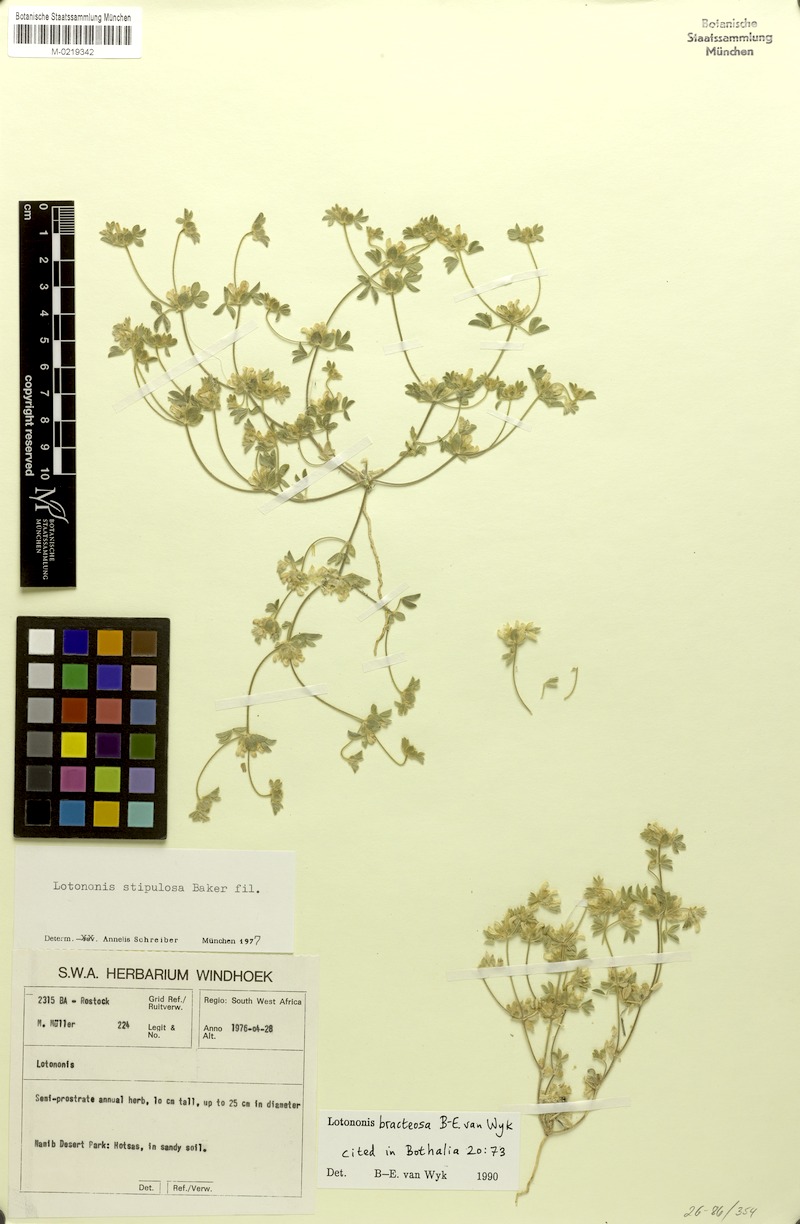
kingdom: Plantae
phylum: Tracheophyta
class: Magnoliopsida
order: Fabales
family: Fabaceae
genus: Leobordea
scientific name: Leobordea bracteosa
